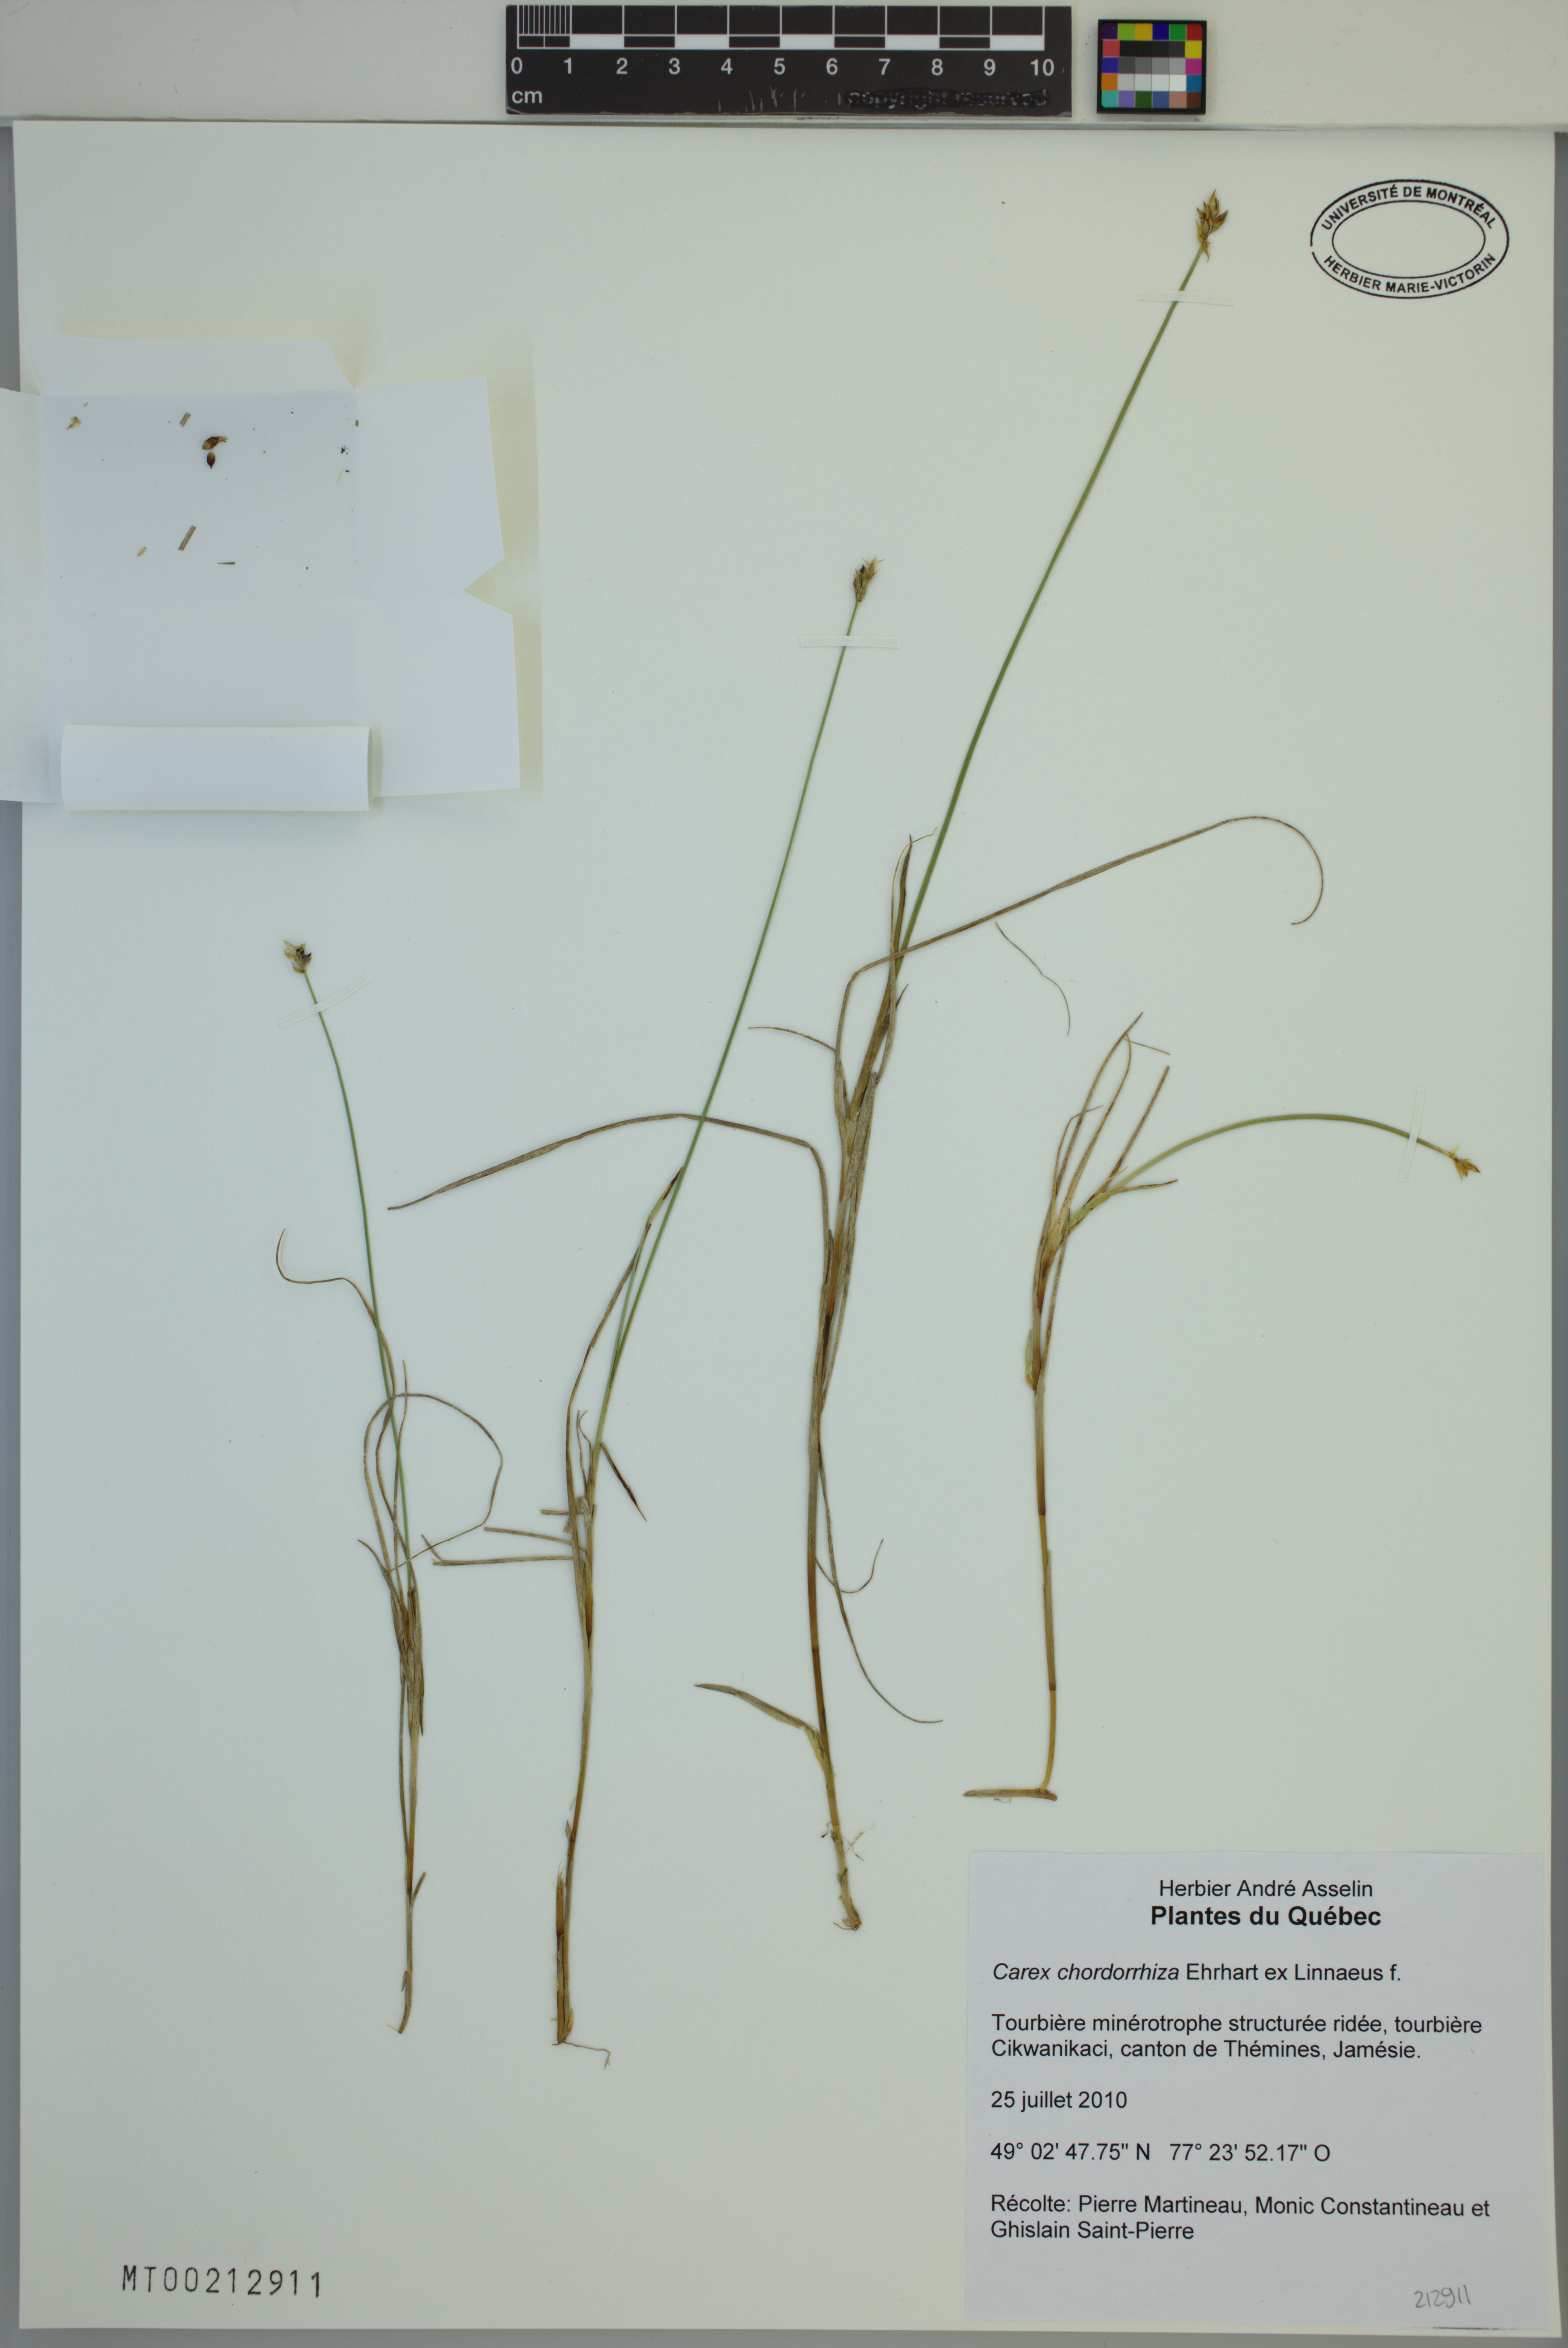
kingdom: Plantae
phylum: Tracheophyta
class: Liliopsida
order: Poales
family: Cyperaceae
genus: Carex
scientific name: Carex chordorrhiza
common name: String sedge
